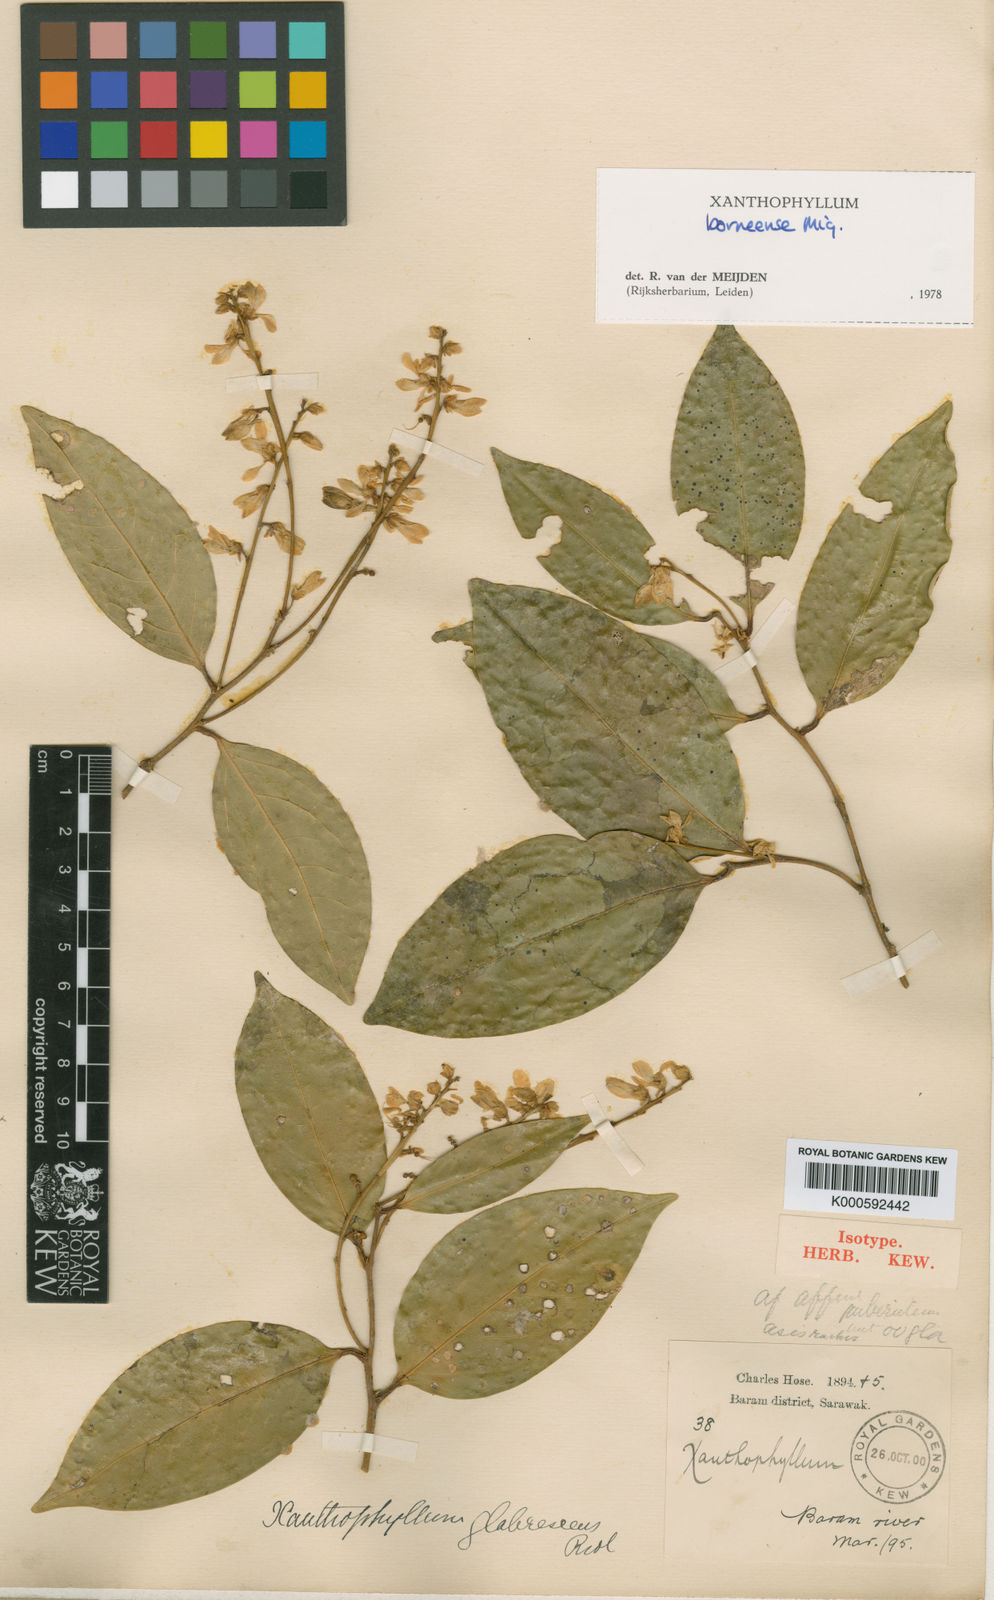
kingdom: Plantae
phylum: Tracheophyta
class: Magnoliopsida
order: Fabales
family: Polygalaceae
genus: Xanthophyllum
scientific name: Xanthophyllum borneense
